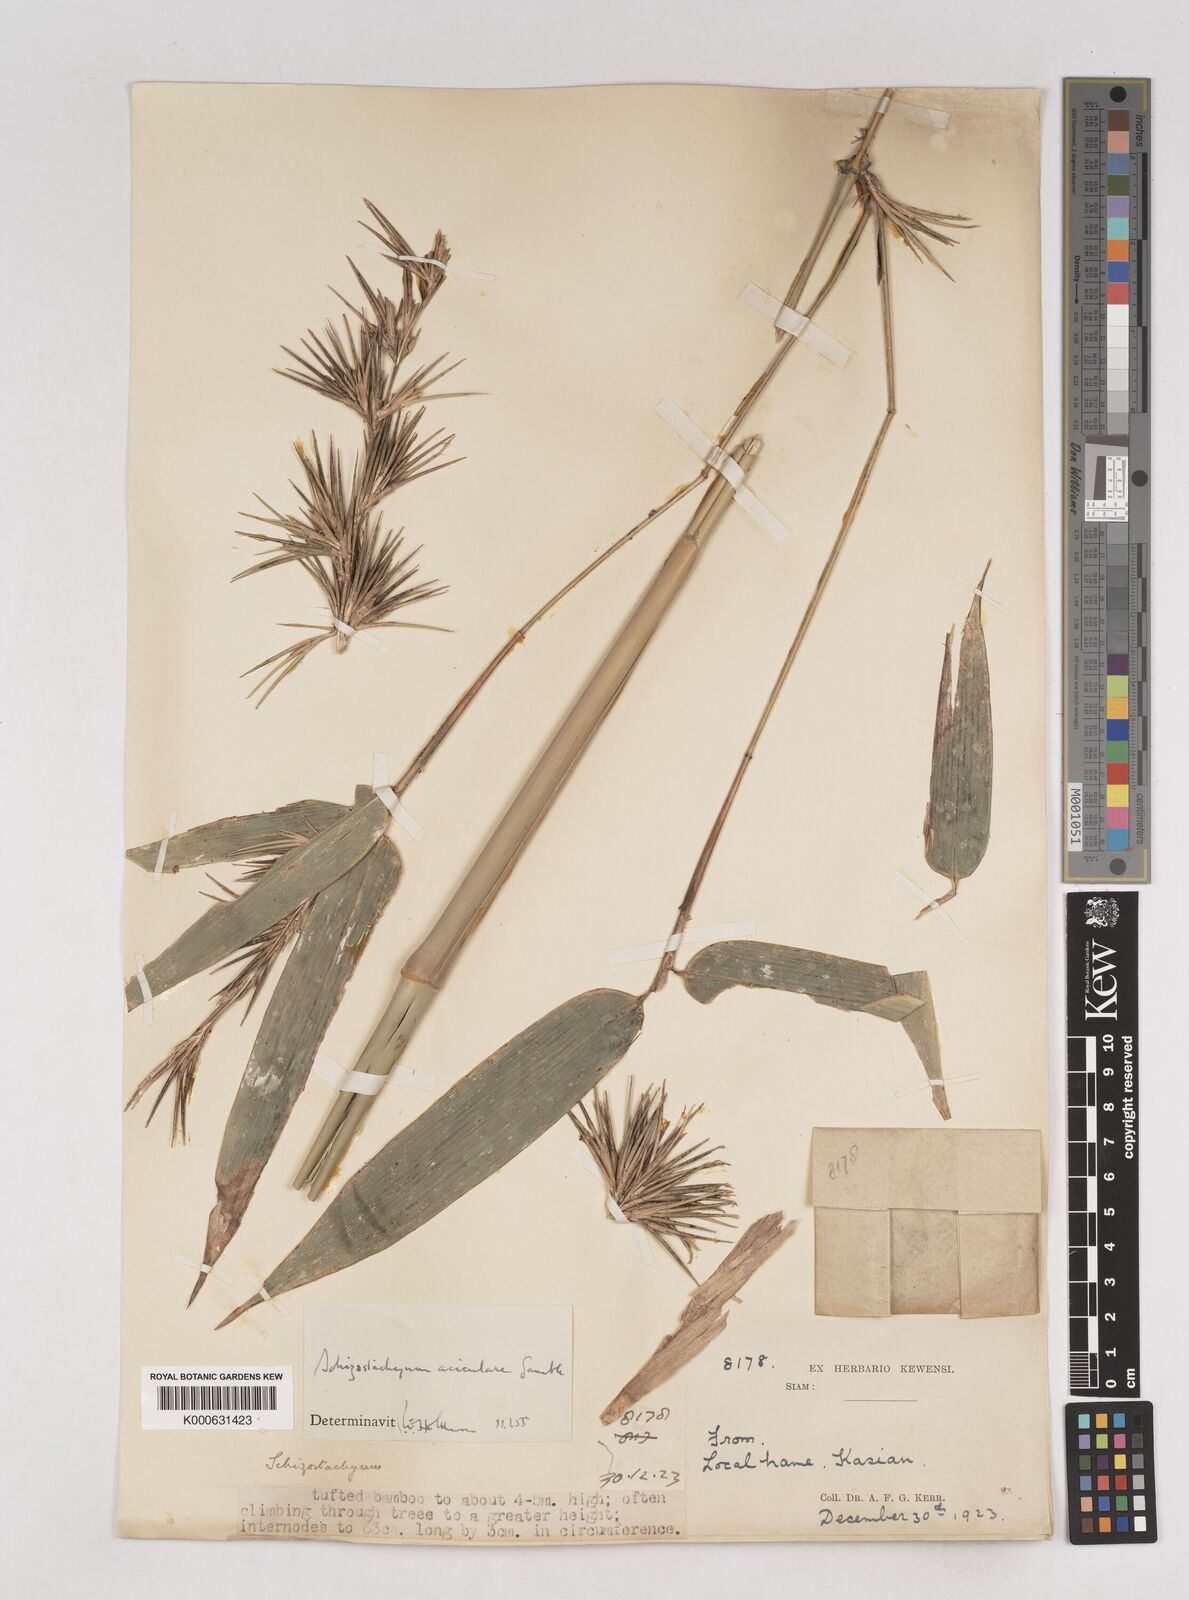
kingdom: Plantae
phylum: Tracheophyta
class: Liliopsida
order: Poales
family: Poaceae
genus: Schizostachyum
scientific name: Schizostachyum aciculare
